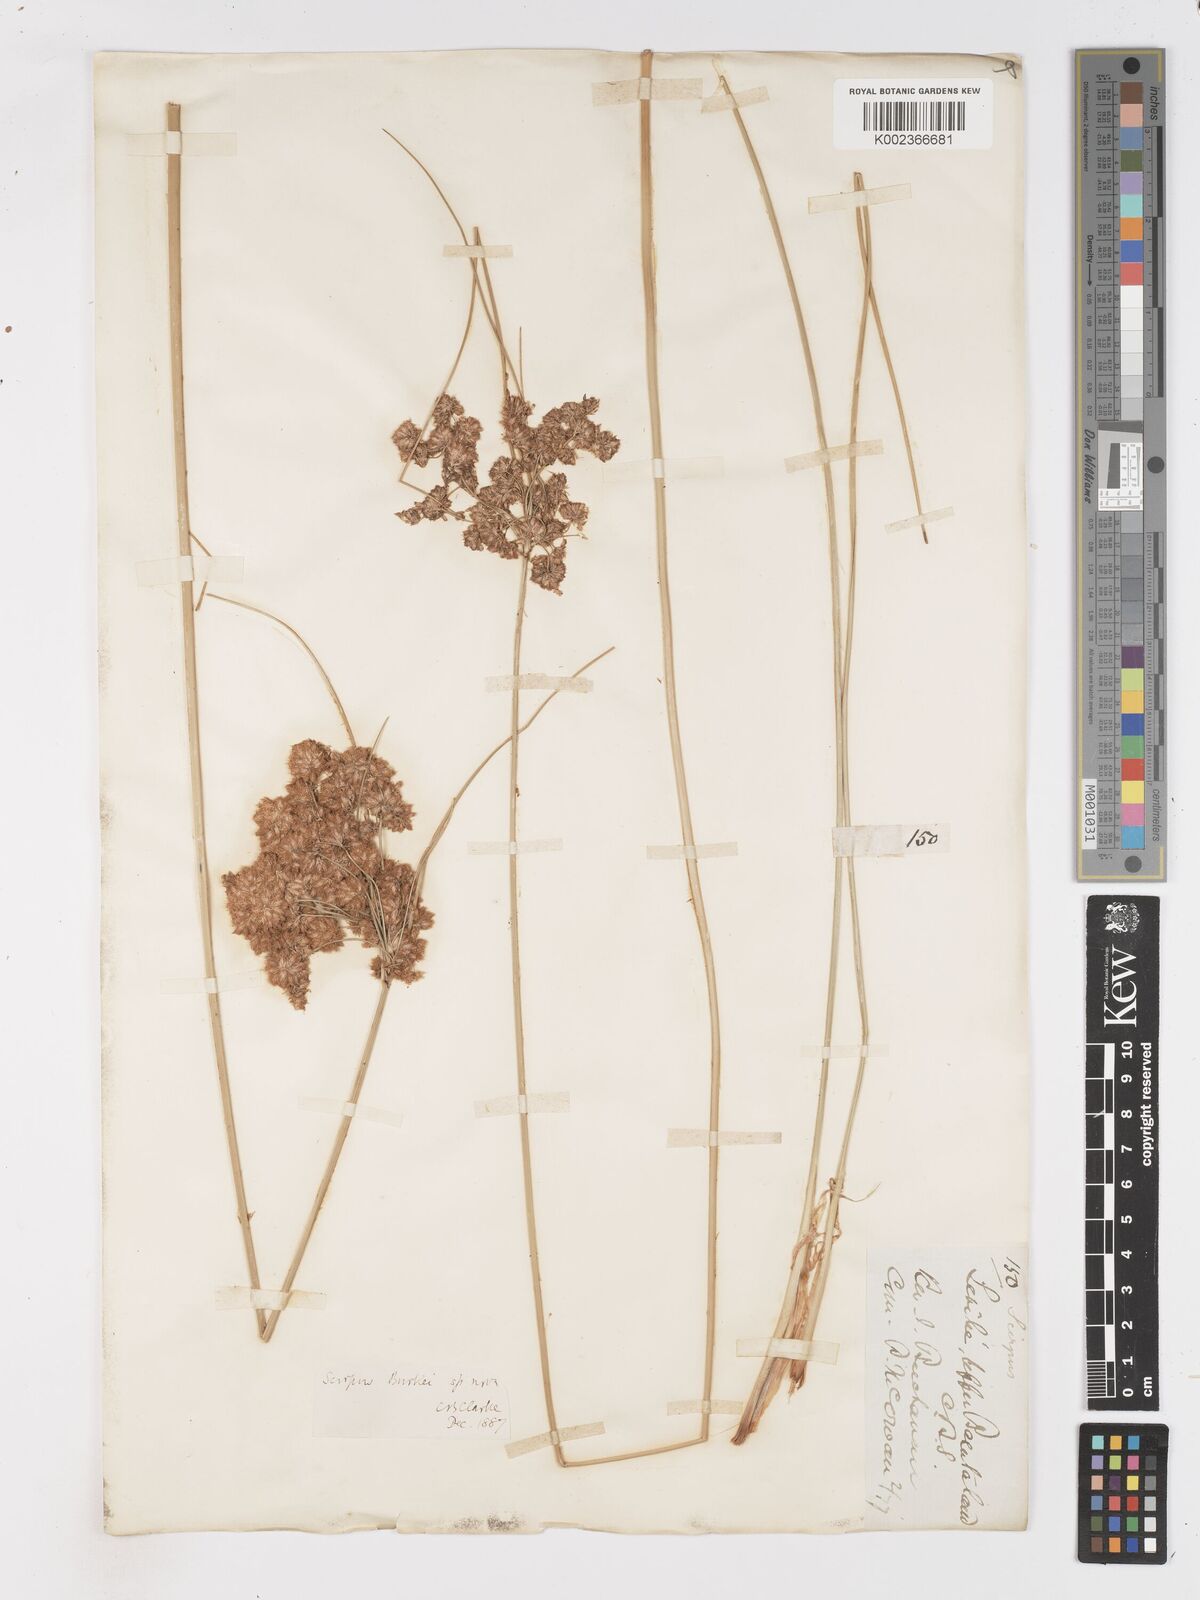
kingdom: Plantae
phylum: Tracheophyta
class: Liliopsida
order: Poales
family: Cyperaceae
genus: Scirpoides
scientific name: Scirpoides burkei
